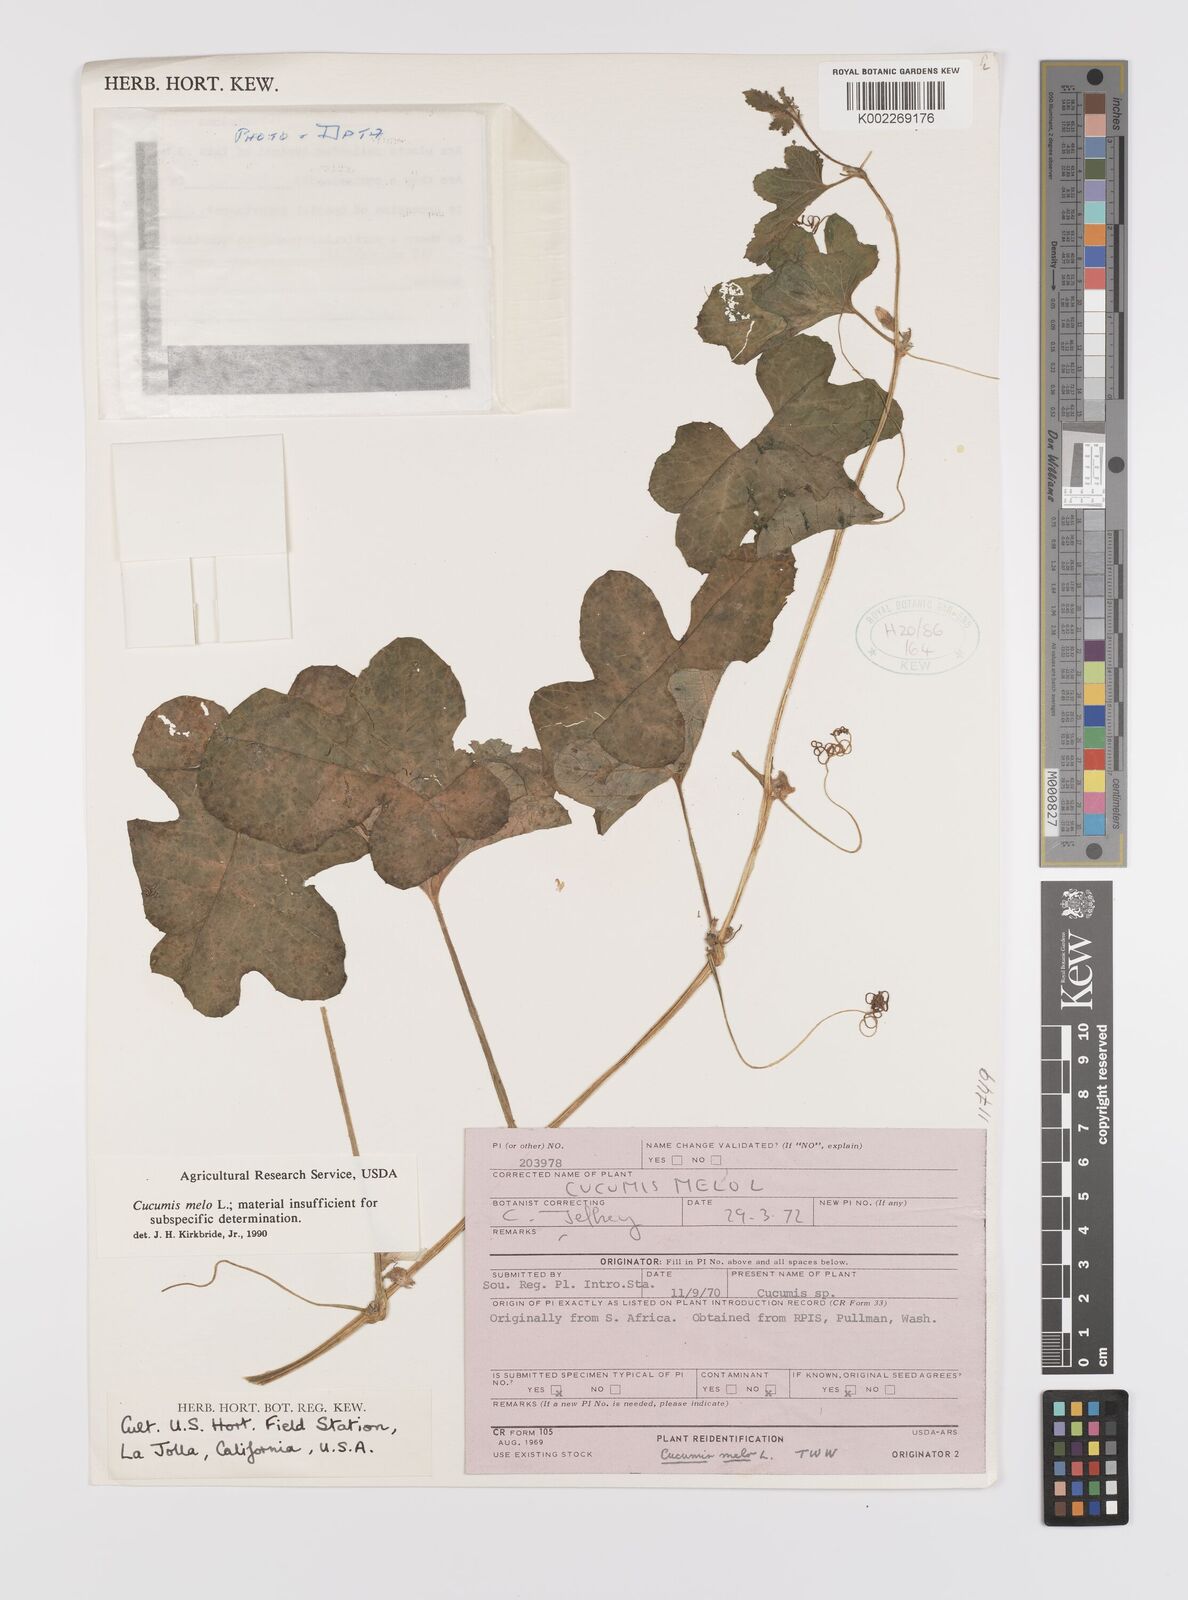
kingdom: Plantae
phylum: Tracheophyta
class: Magnoliopsida
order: Cucurbitales
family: Cucurbitaceae
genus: Cucumis
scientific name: Cucumis melo
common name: Melon
